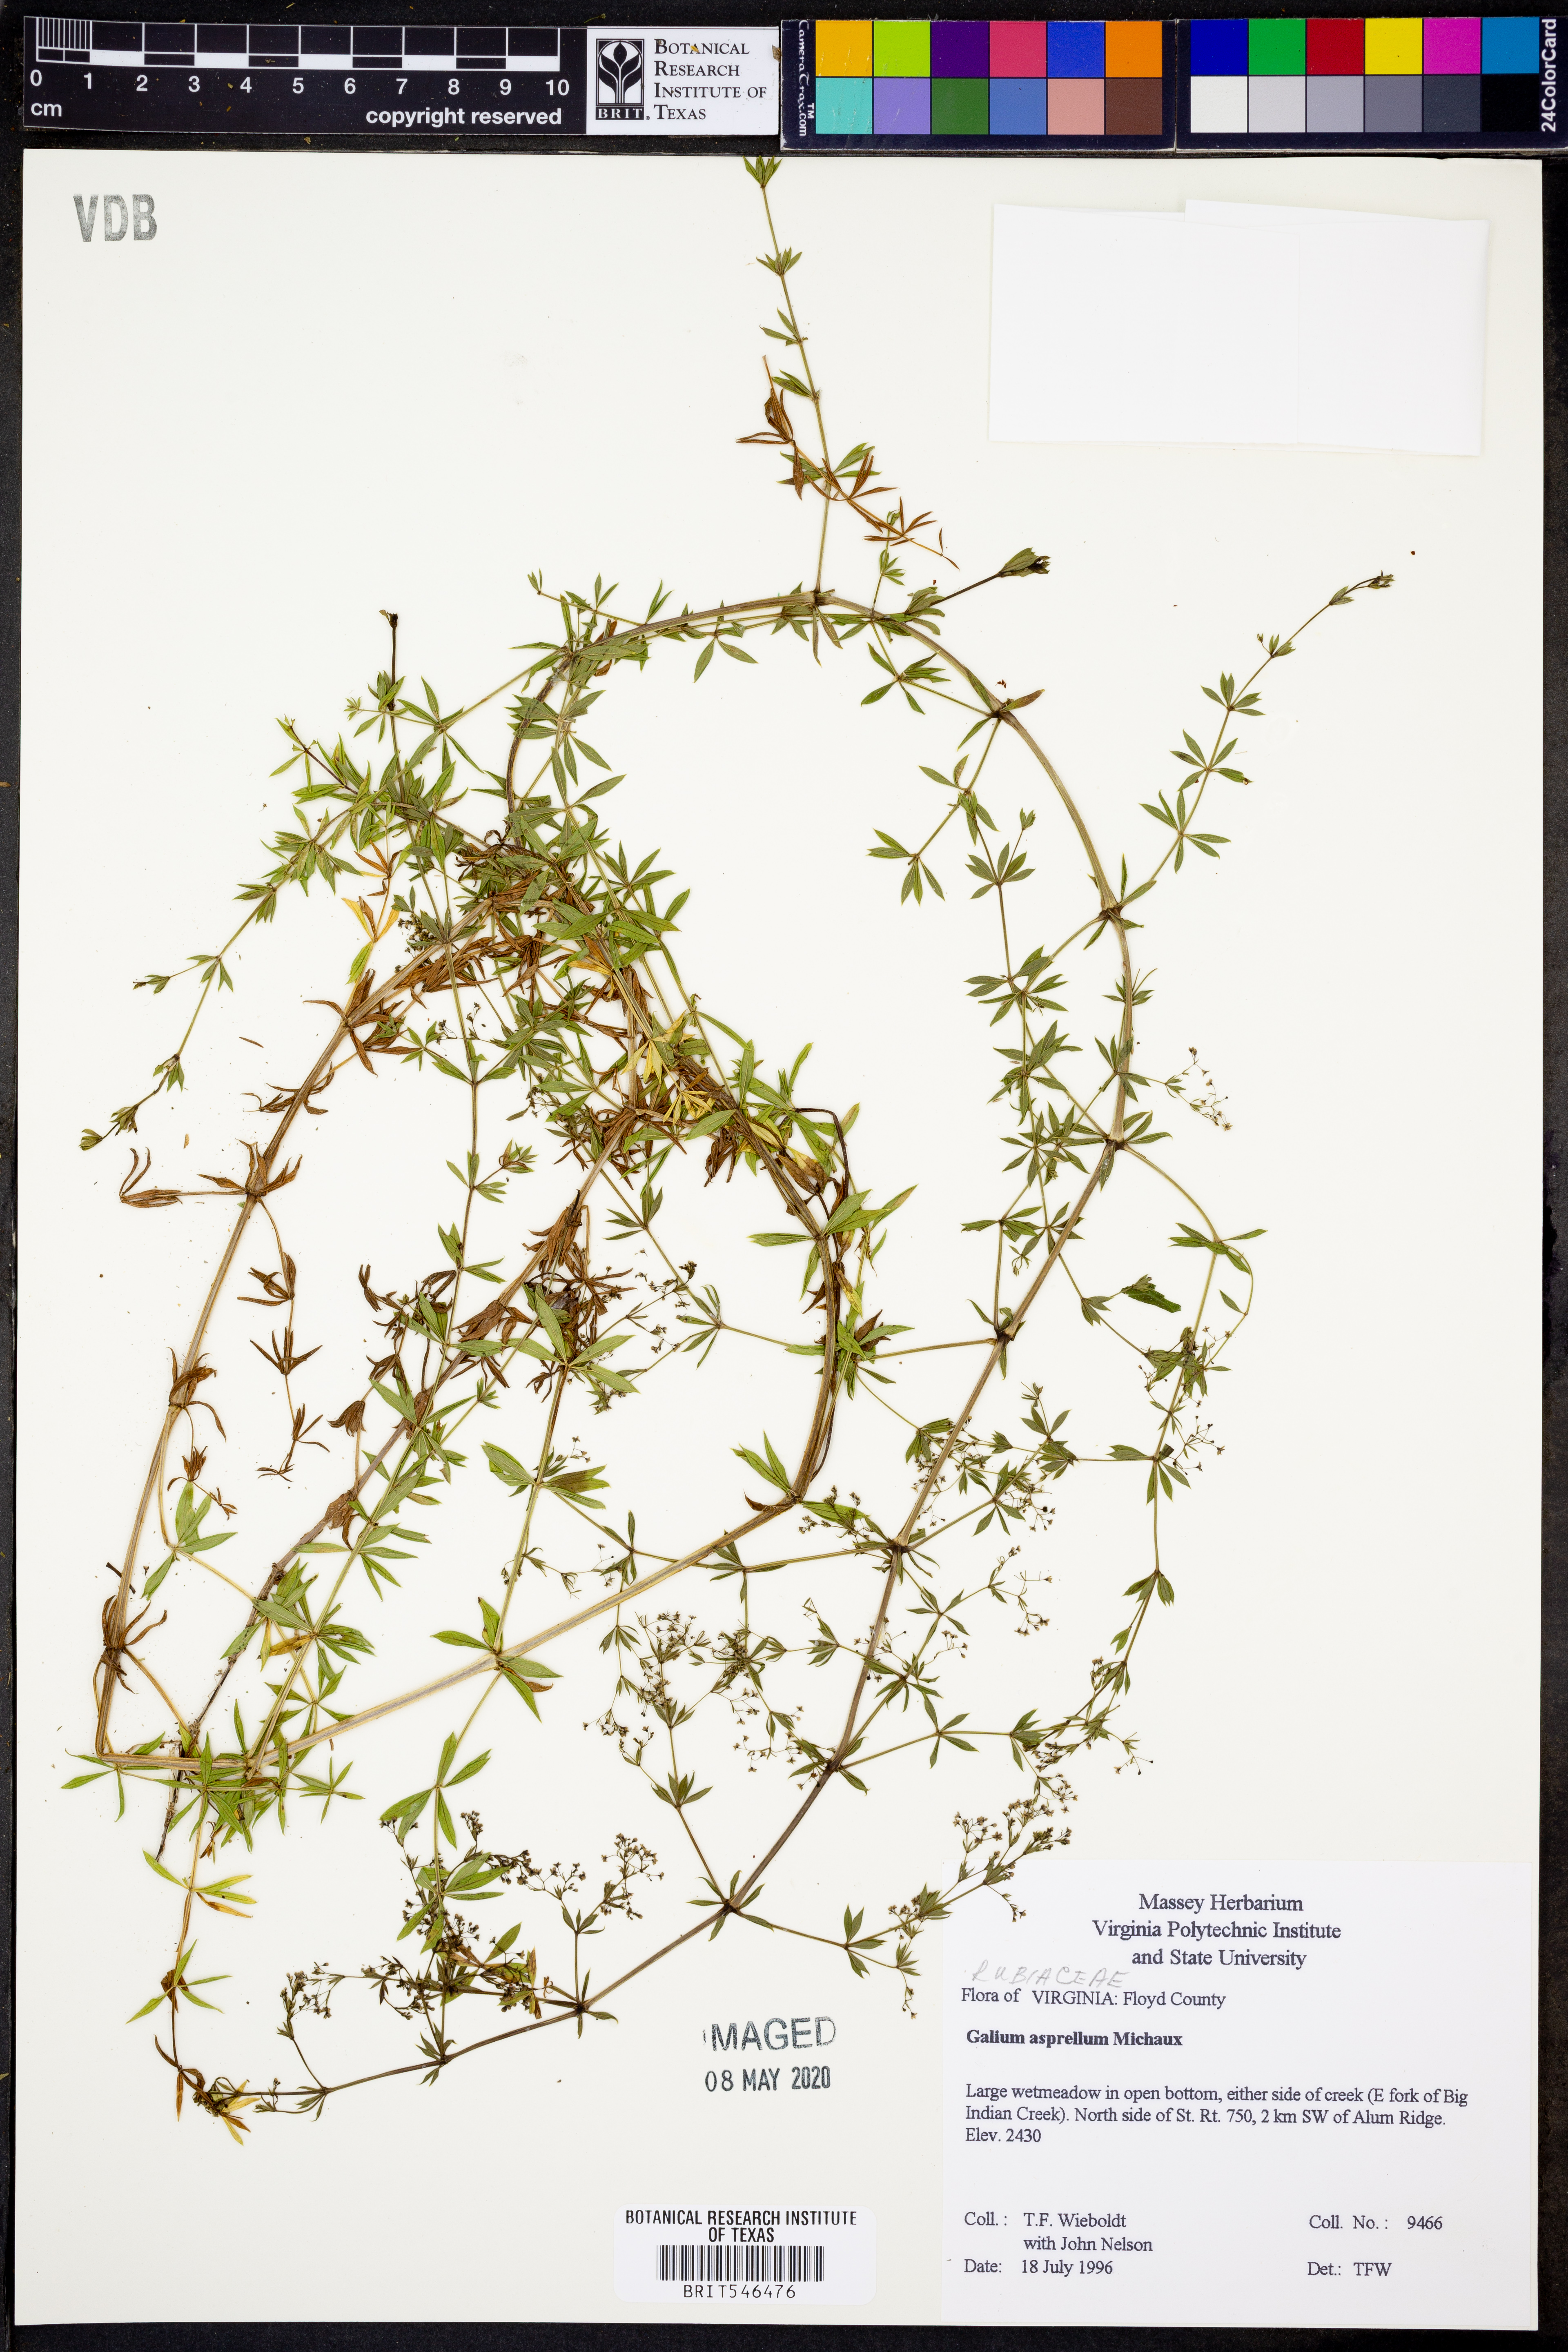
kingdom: Plantae
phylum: Tracheophyta
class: Magnoliopsida
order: Gentianales
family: Rubiaceae
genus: Galium
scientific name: Galium asprellum
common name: Rough bedstraw
